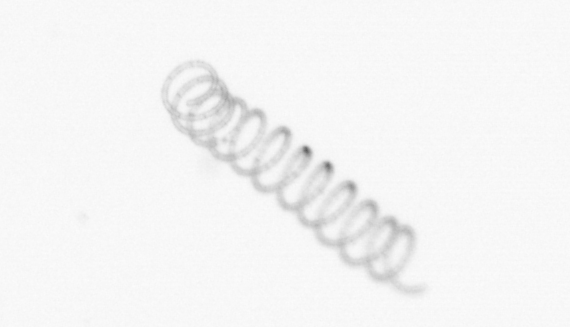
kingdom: Chromista
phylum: Ochrophyta
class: Bacillariophyceae
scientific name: Bacillariophyceae
